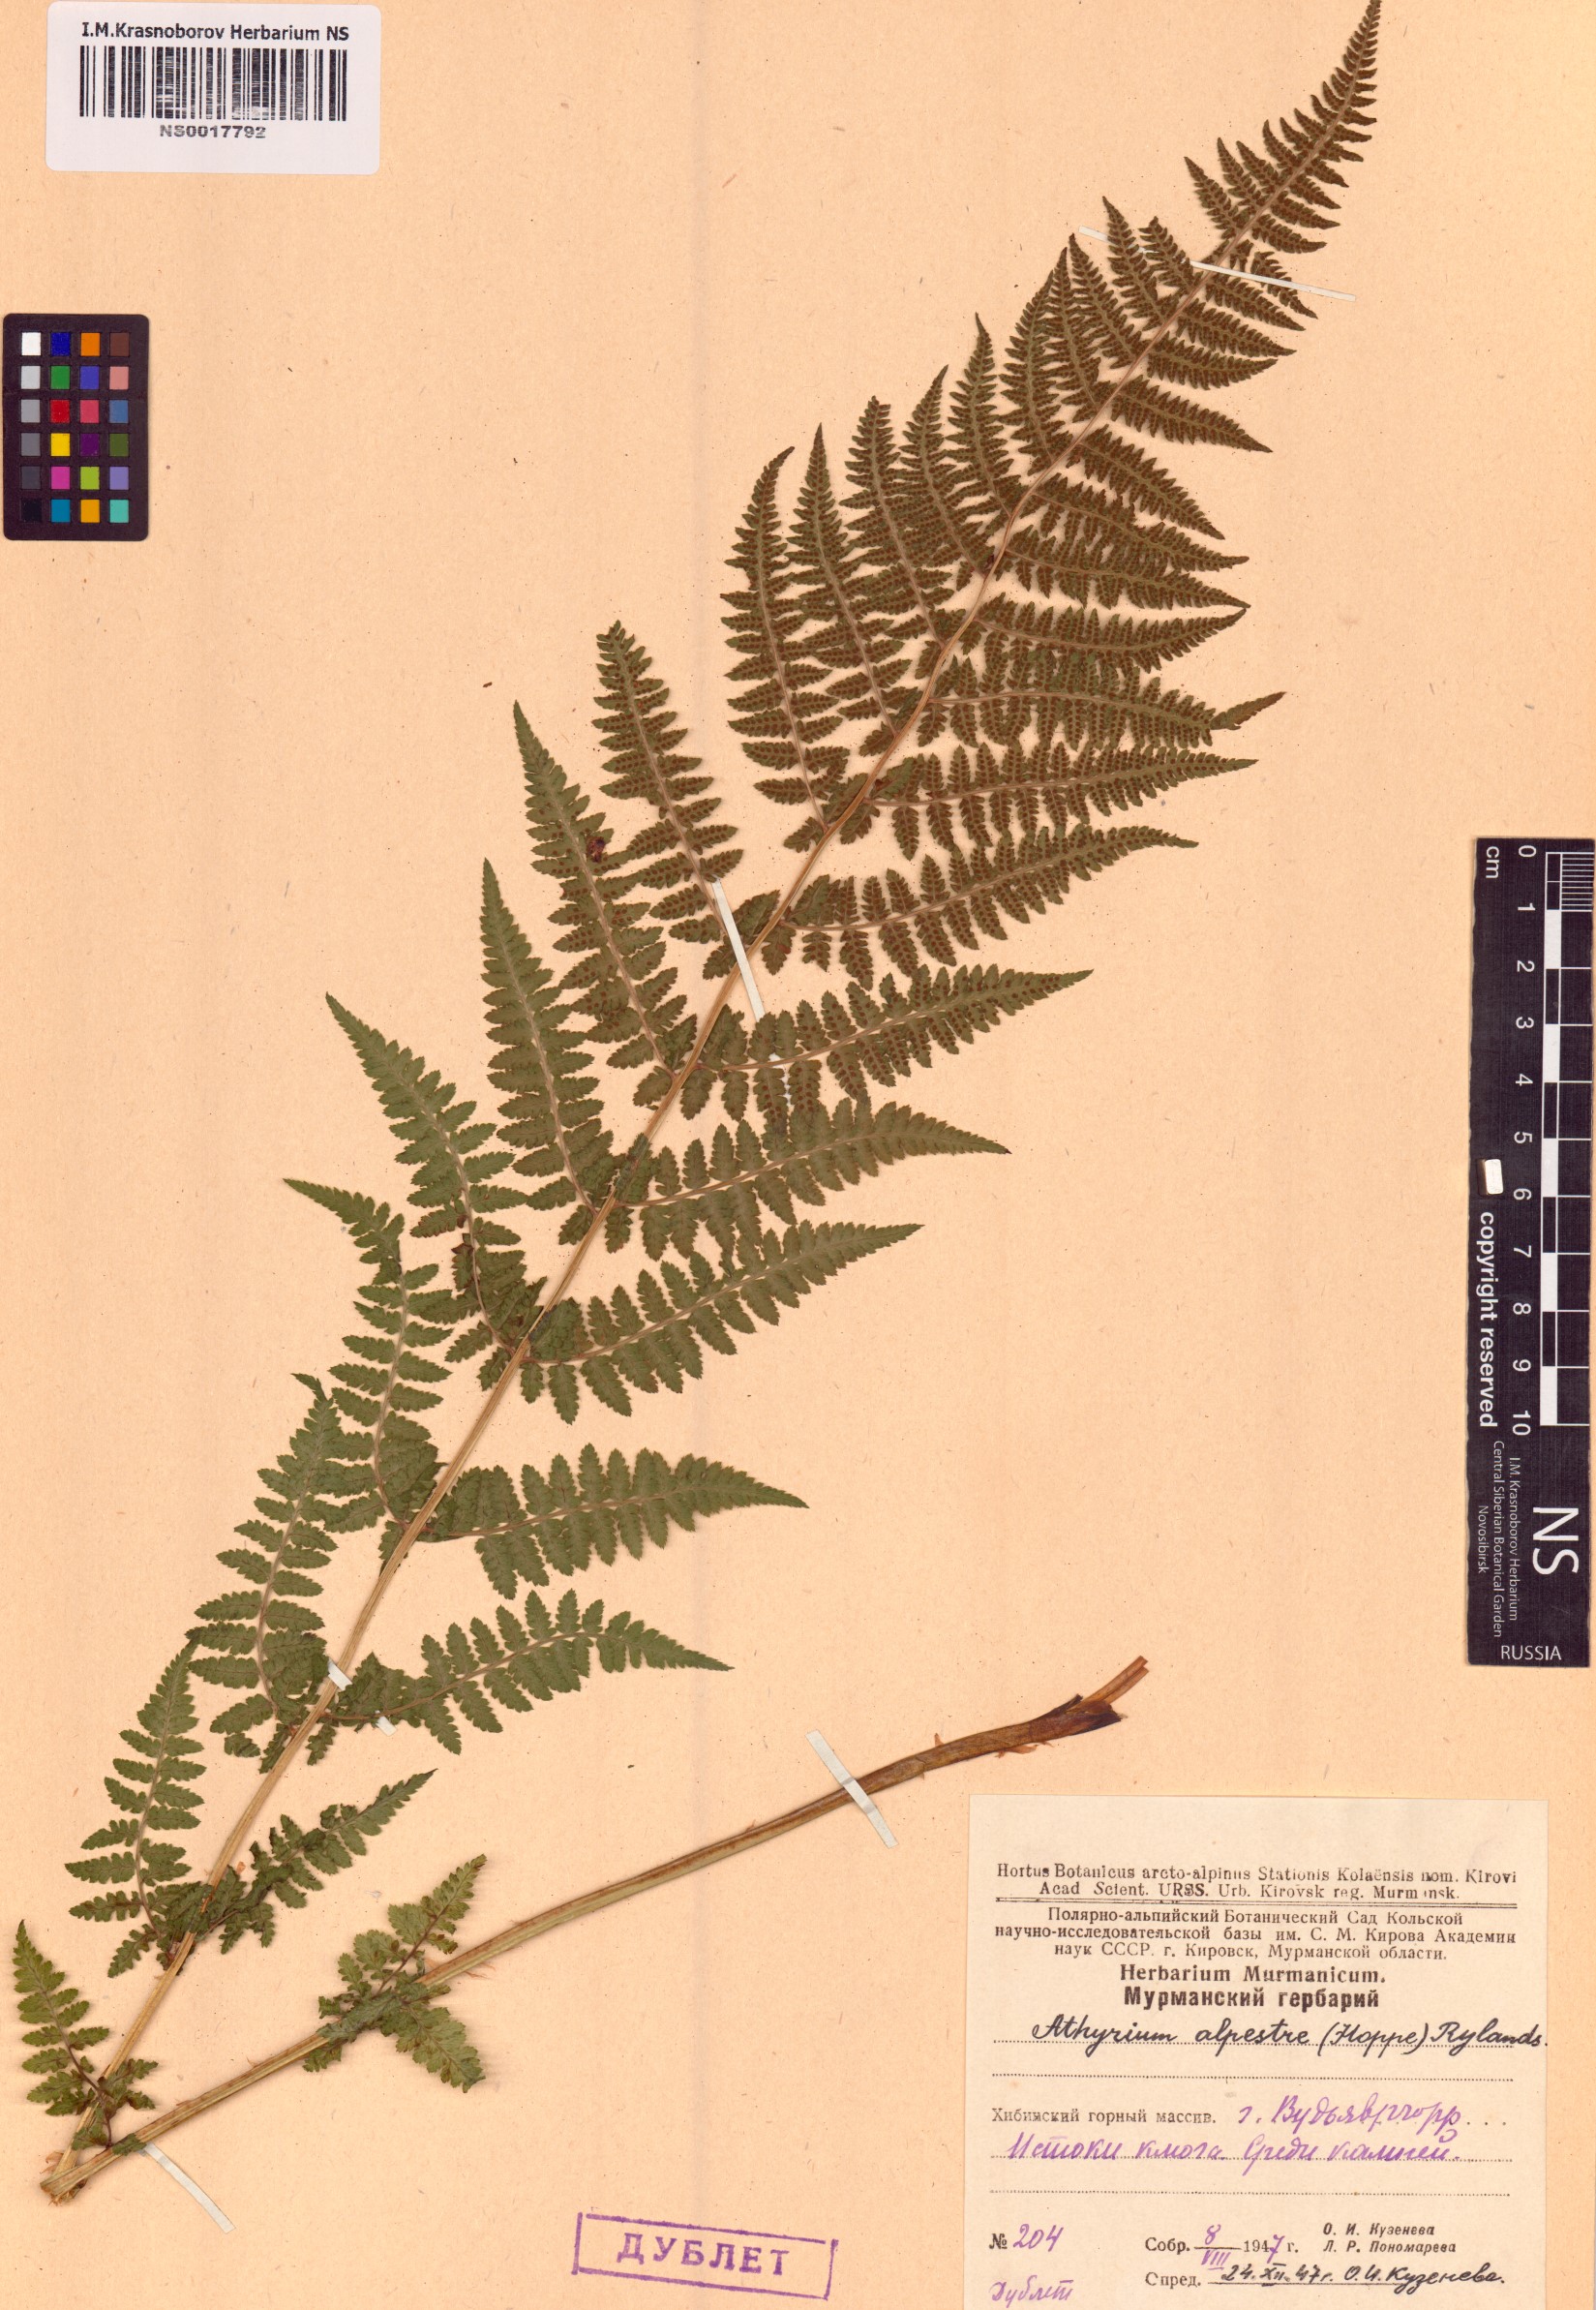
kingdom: Plantae
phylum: Tracheophyta
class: Polypodiopsida
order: Polypodiales
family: Athyriaceae
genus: Pseudathyrium
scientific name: Pseudathyrium alpestre
